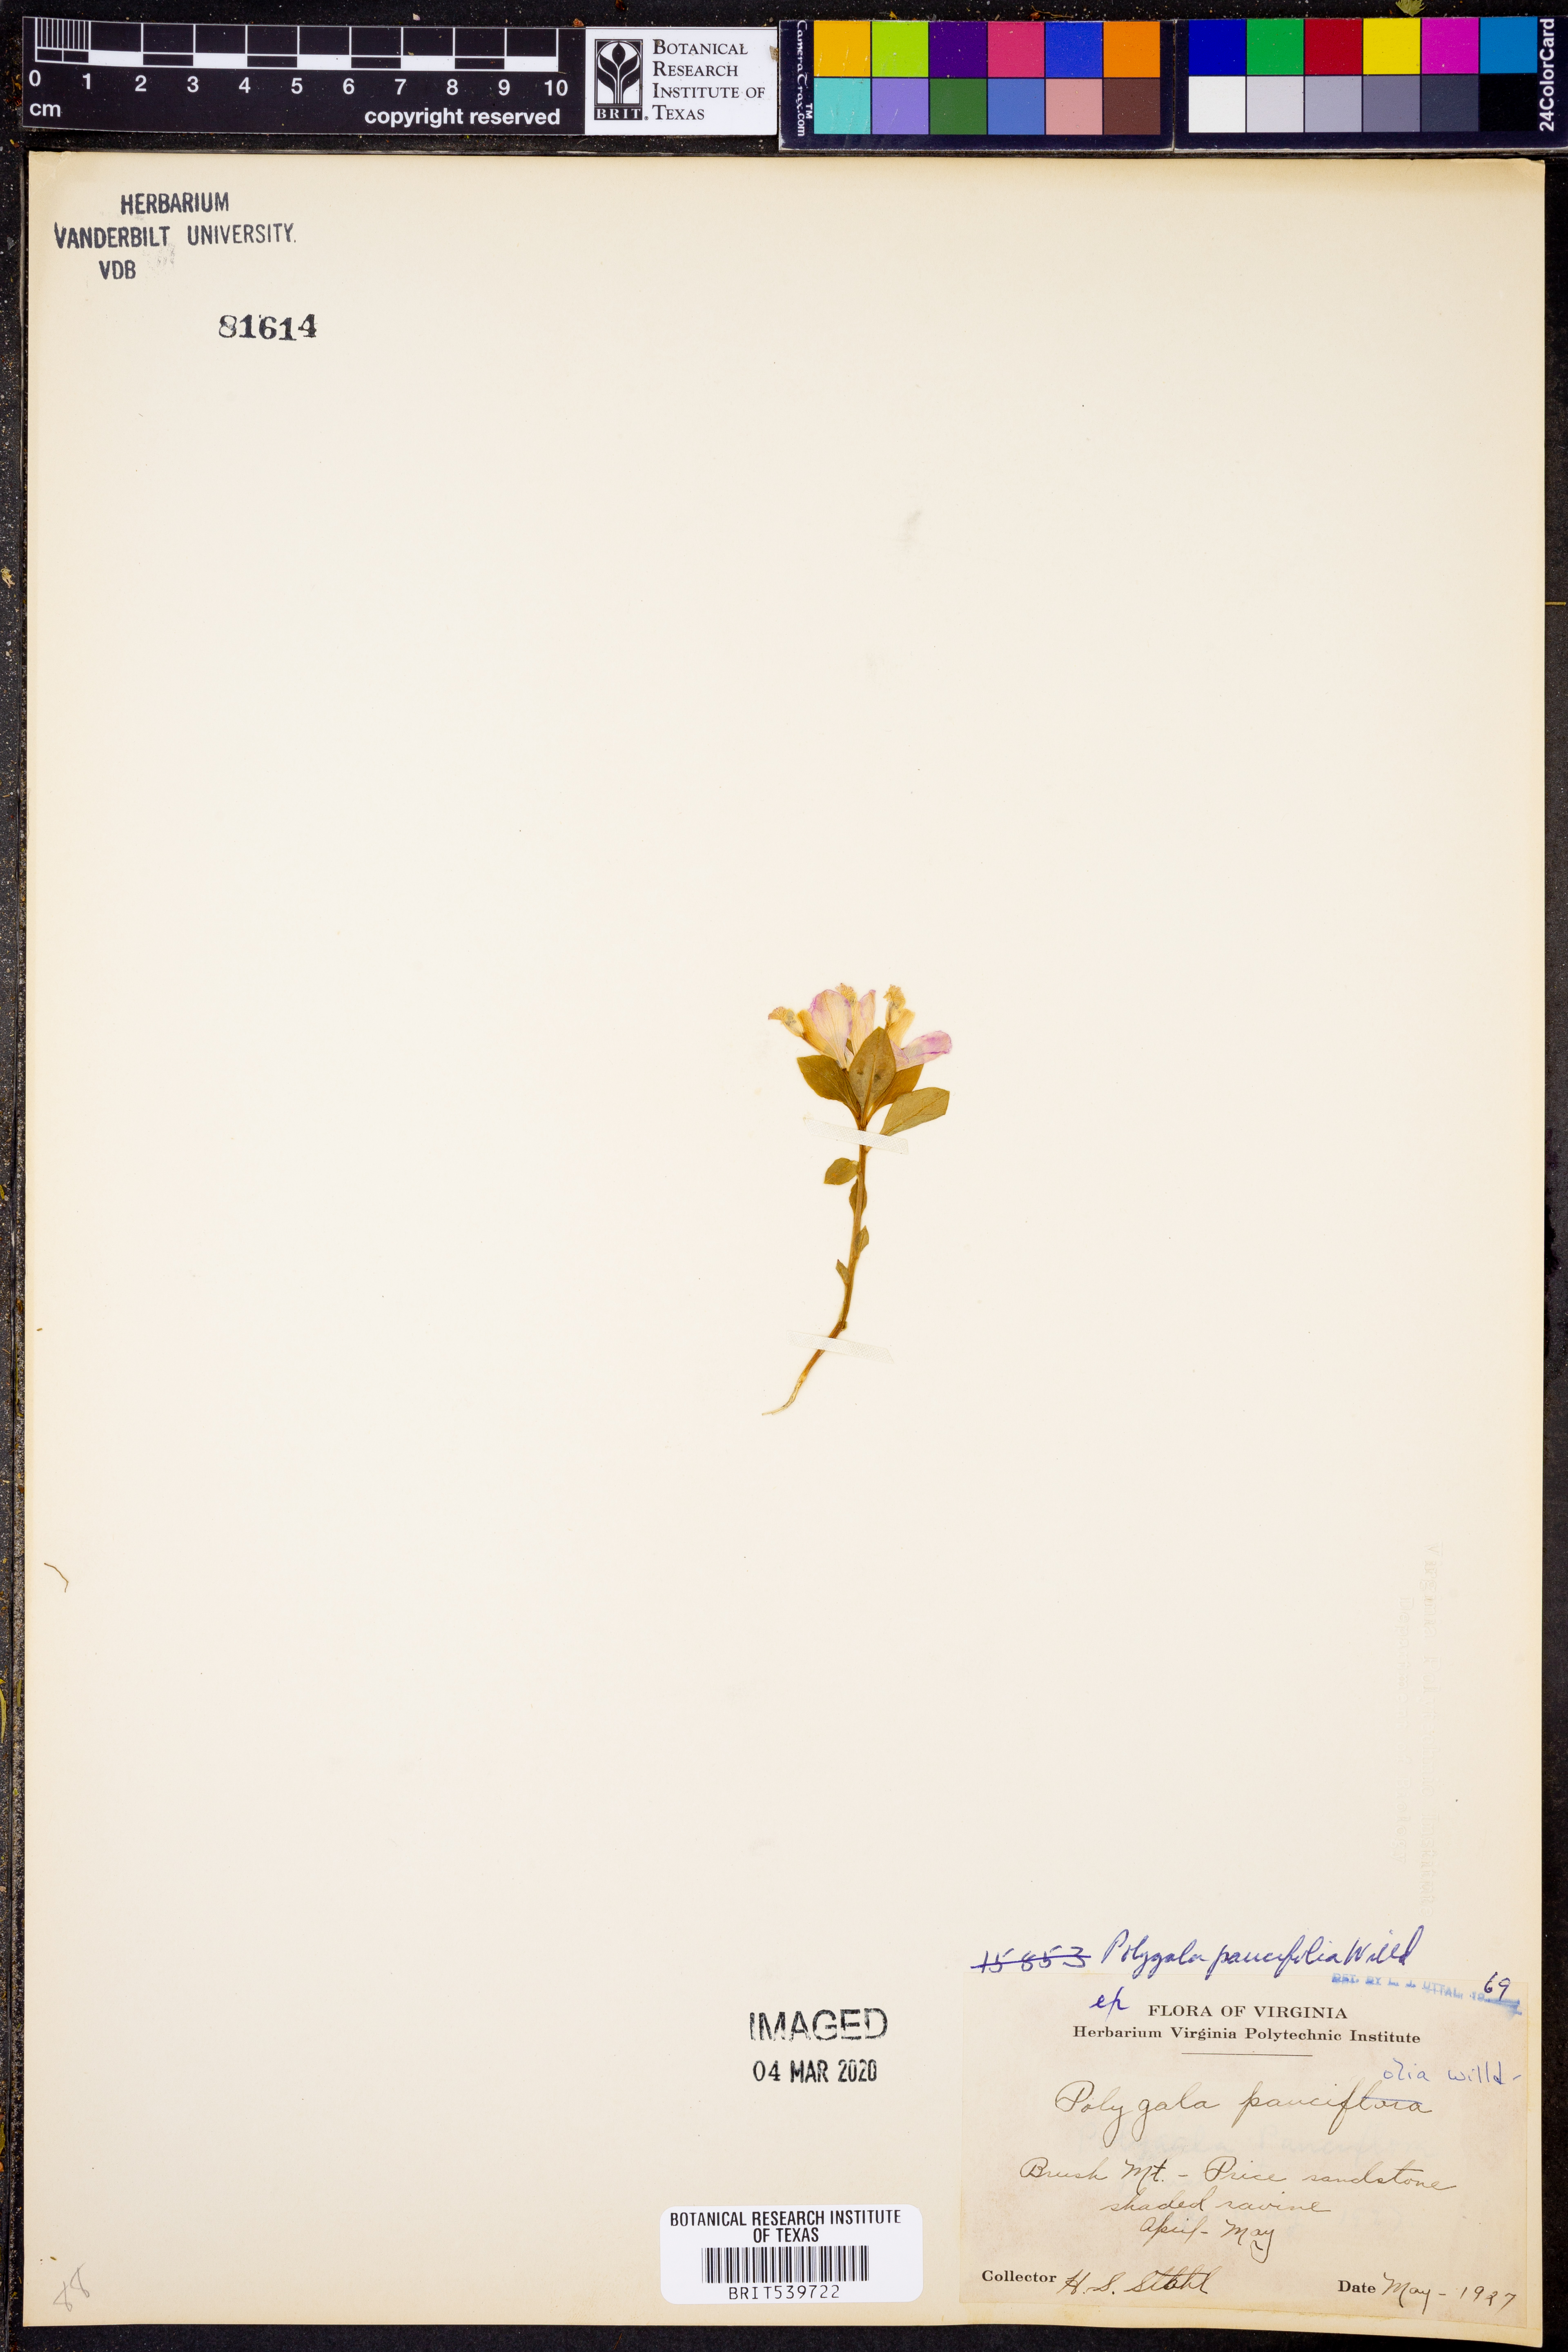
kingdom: Plantae
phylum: Tracheophyta
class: Magnoliopsida
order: Fabales
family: Polygalaceae
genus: Polygaloides
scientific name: Polygaloides paucifolia
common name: Bird-on-the-wing
